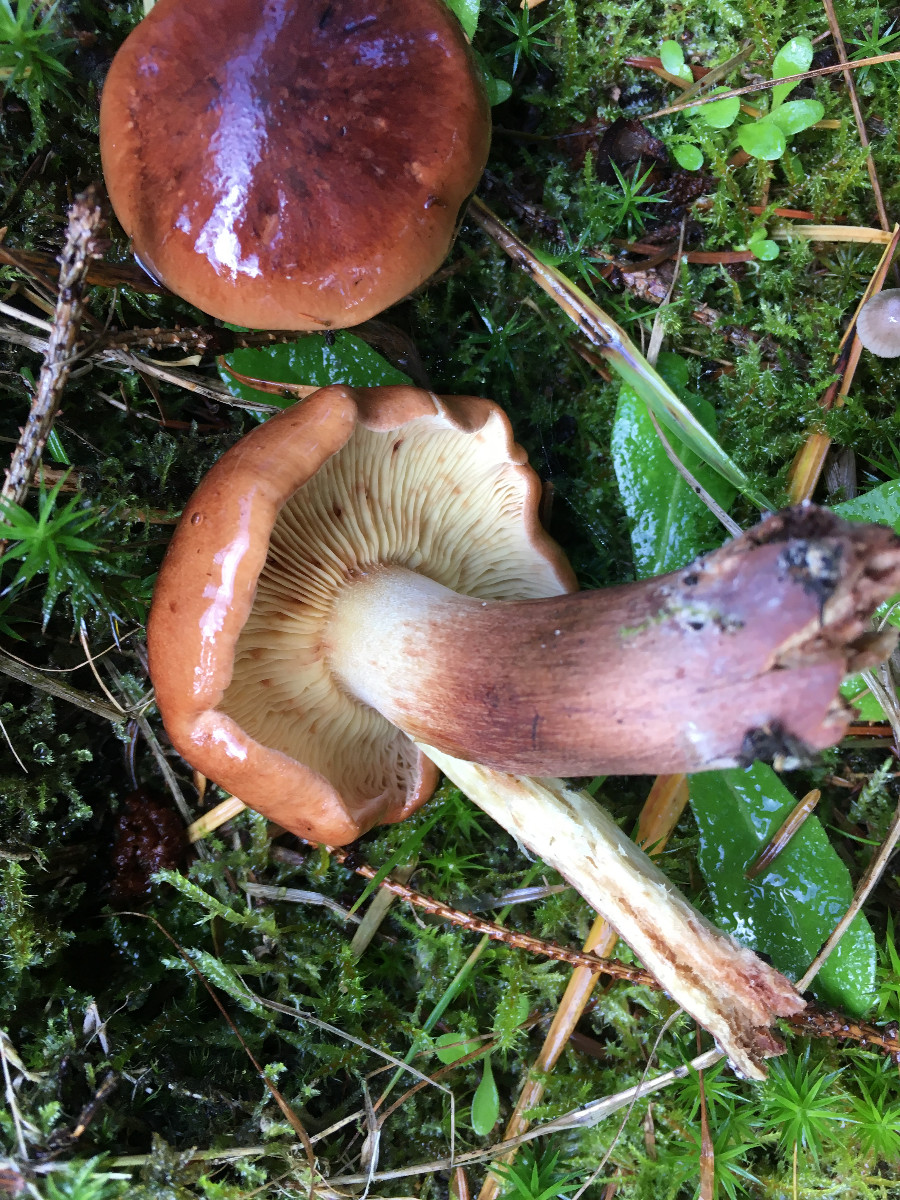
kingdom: Fungi
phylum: Basidiomycota
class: Agaricomycetes
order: Agaricales
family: Tricholomataceae
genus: Tricholoma
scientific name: Tricholoma fulvum
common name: birke-ridderhat
